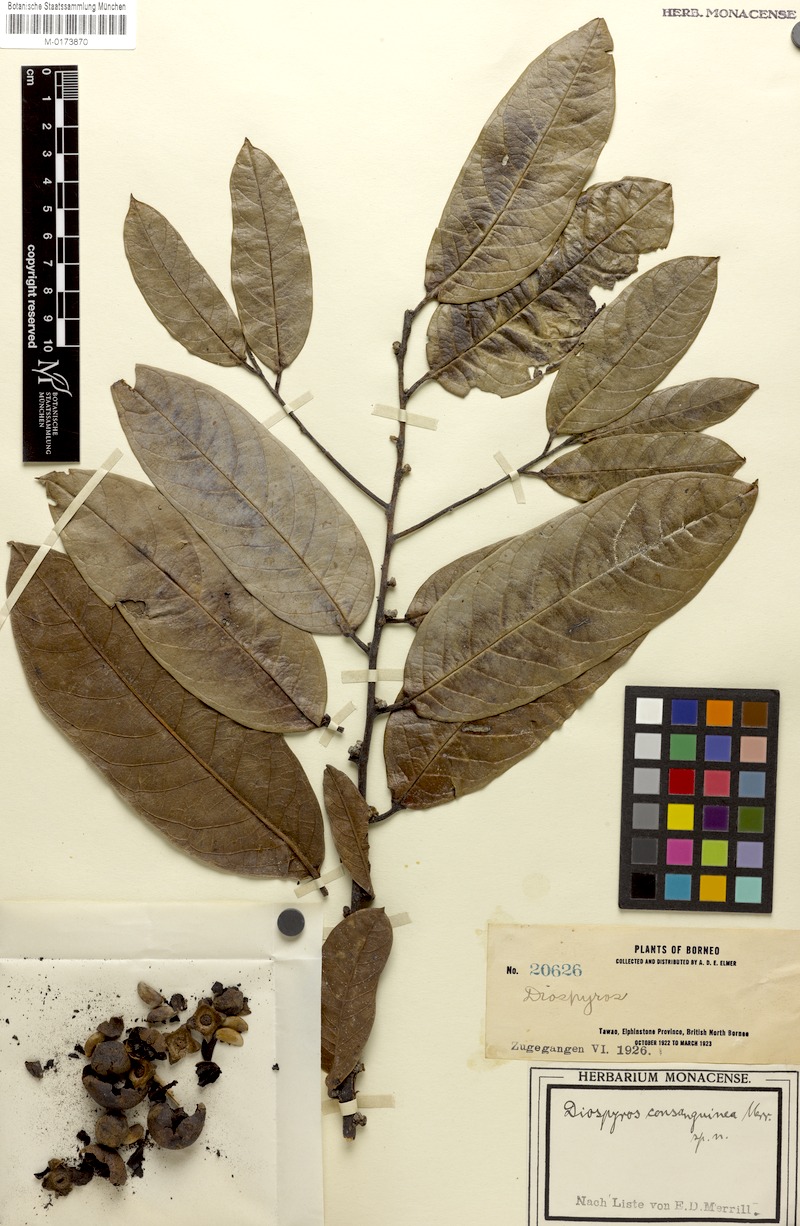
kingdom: Plantae
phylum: Tracheophyta
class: Magnoliopsida
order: Ericales
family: Ebenaceae
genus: Diospyros
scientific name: Diospyros consanguinea
